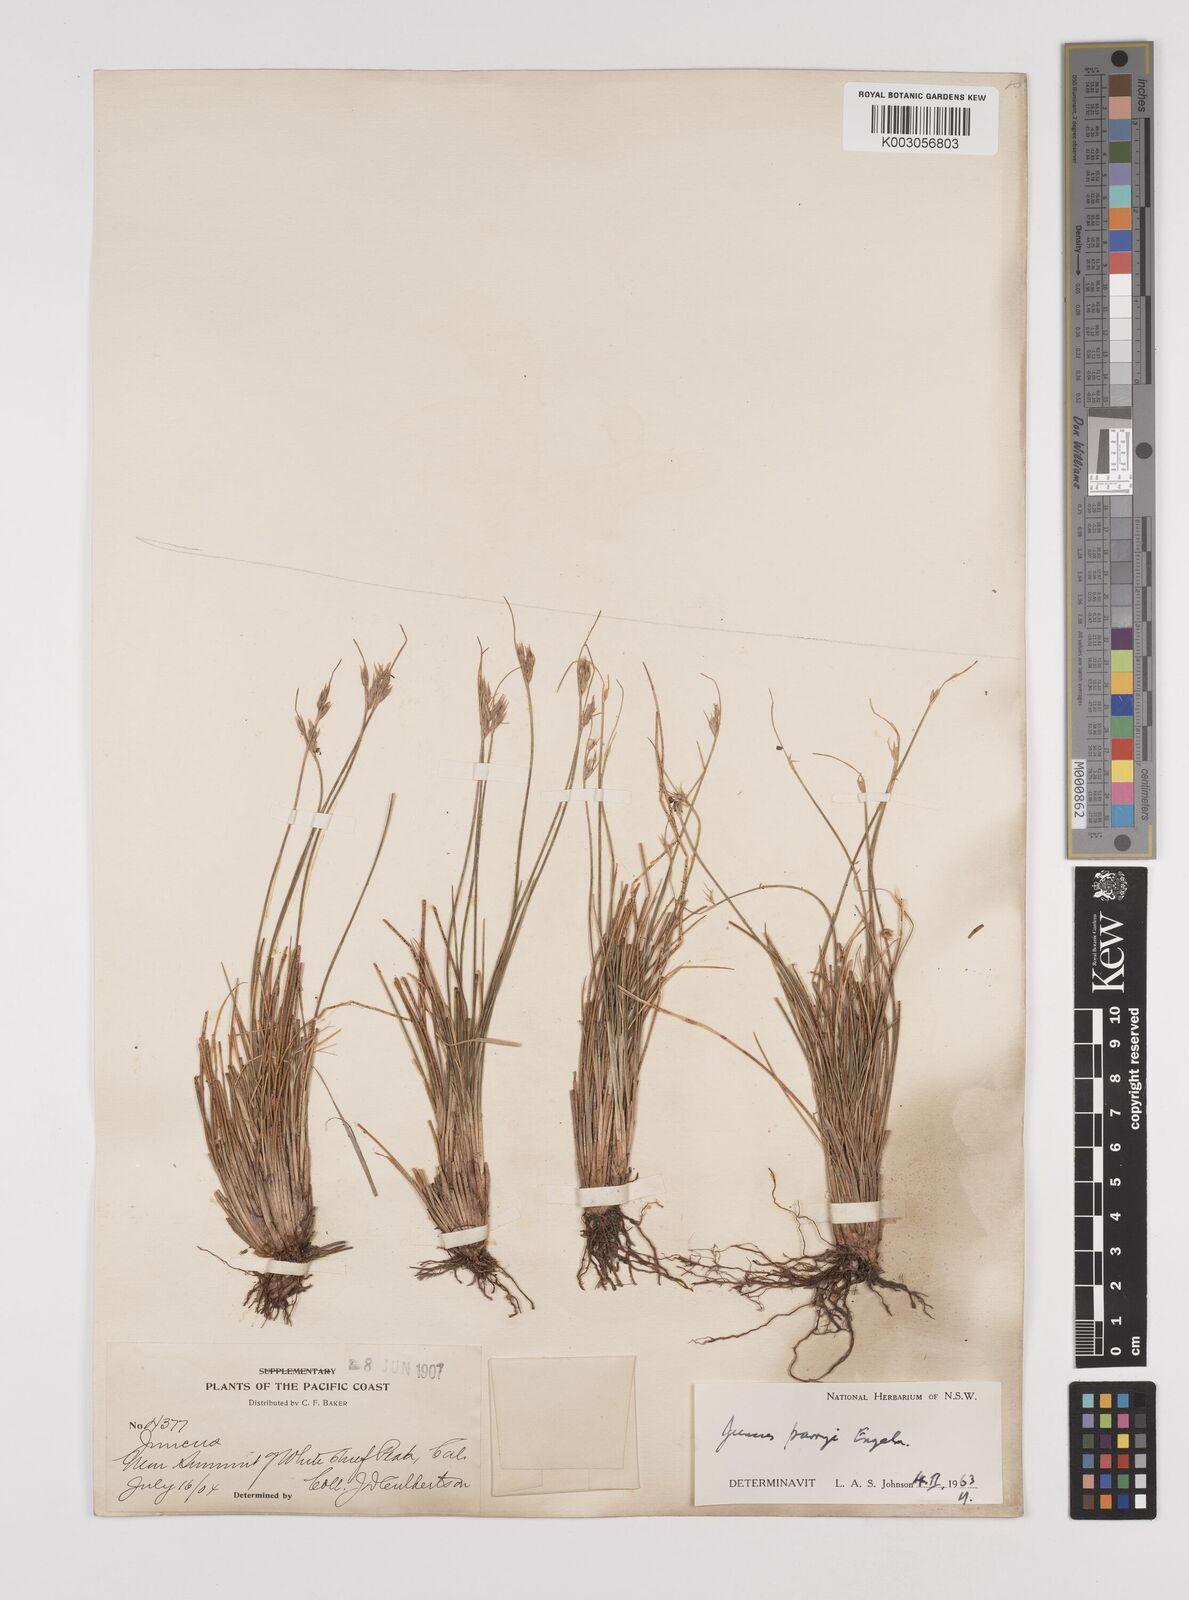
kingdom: Plantae
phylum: Tracheophyta
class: Liliopsida
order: Poales
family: Juncaceae
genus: Juncus
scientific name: Juncus parryi
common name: Parry's rush
